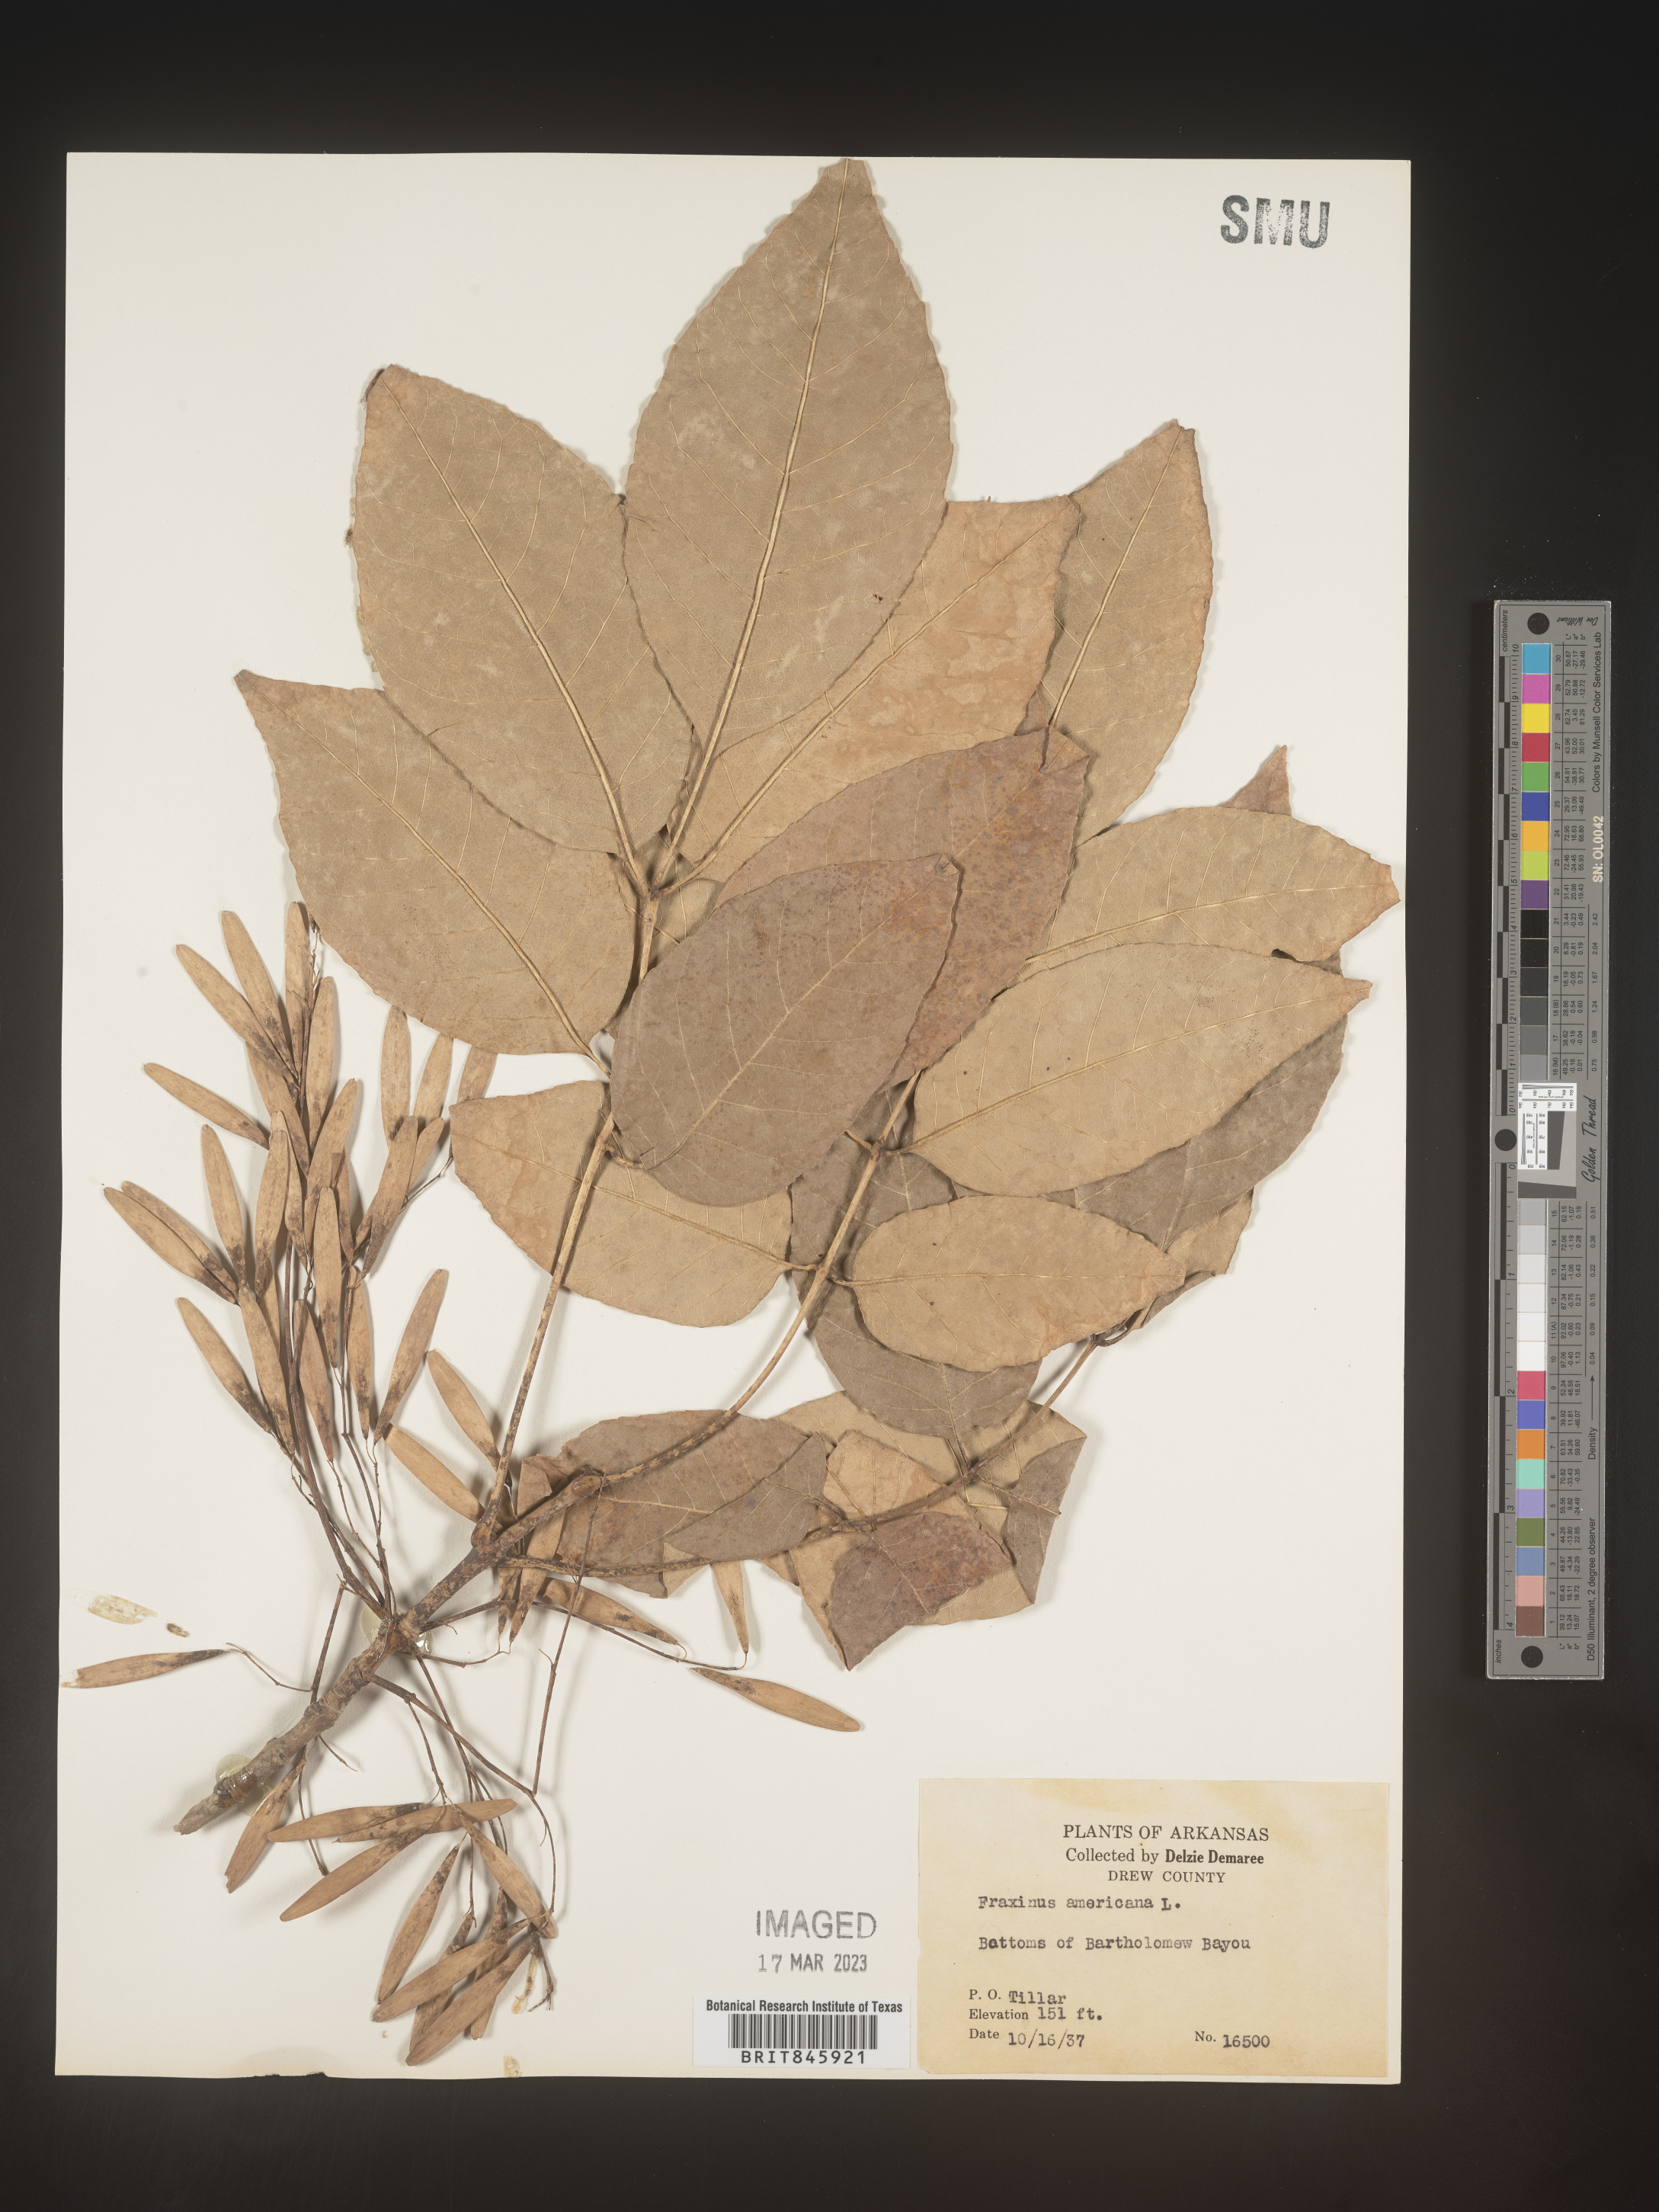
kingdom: Plantae
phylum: Tracheophyta
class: Magnoliopsida
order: Lamiales
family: Oleaceae
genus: Fraxinus
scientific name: Fraxinus americana
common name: White ash
